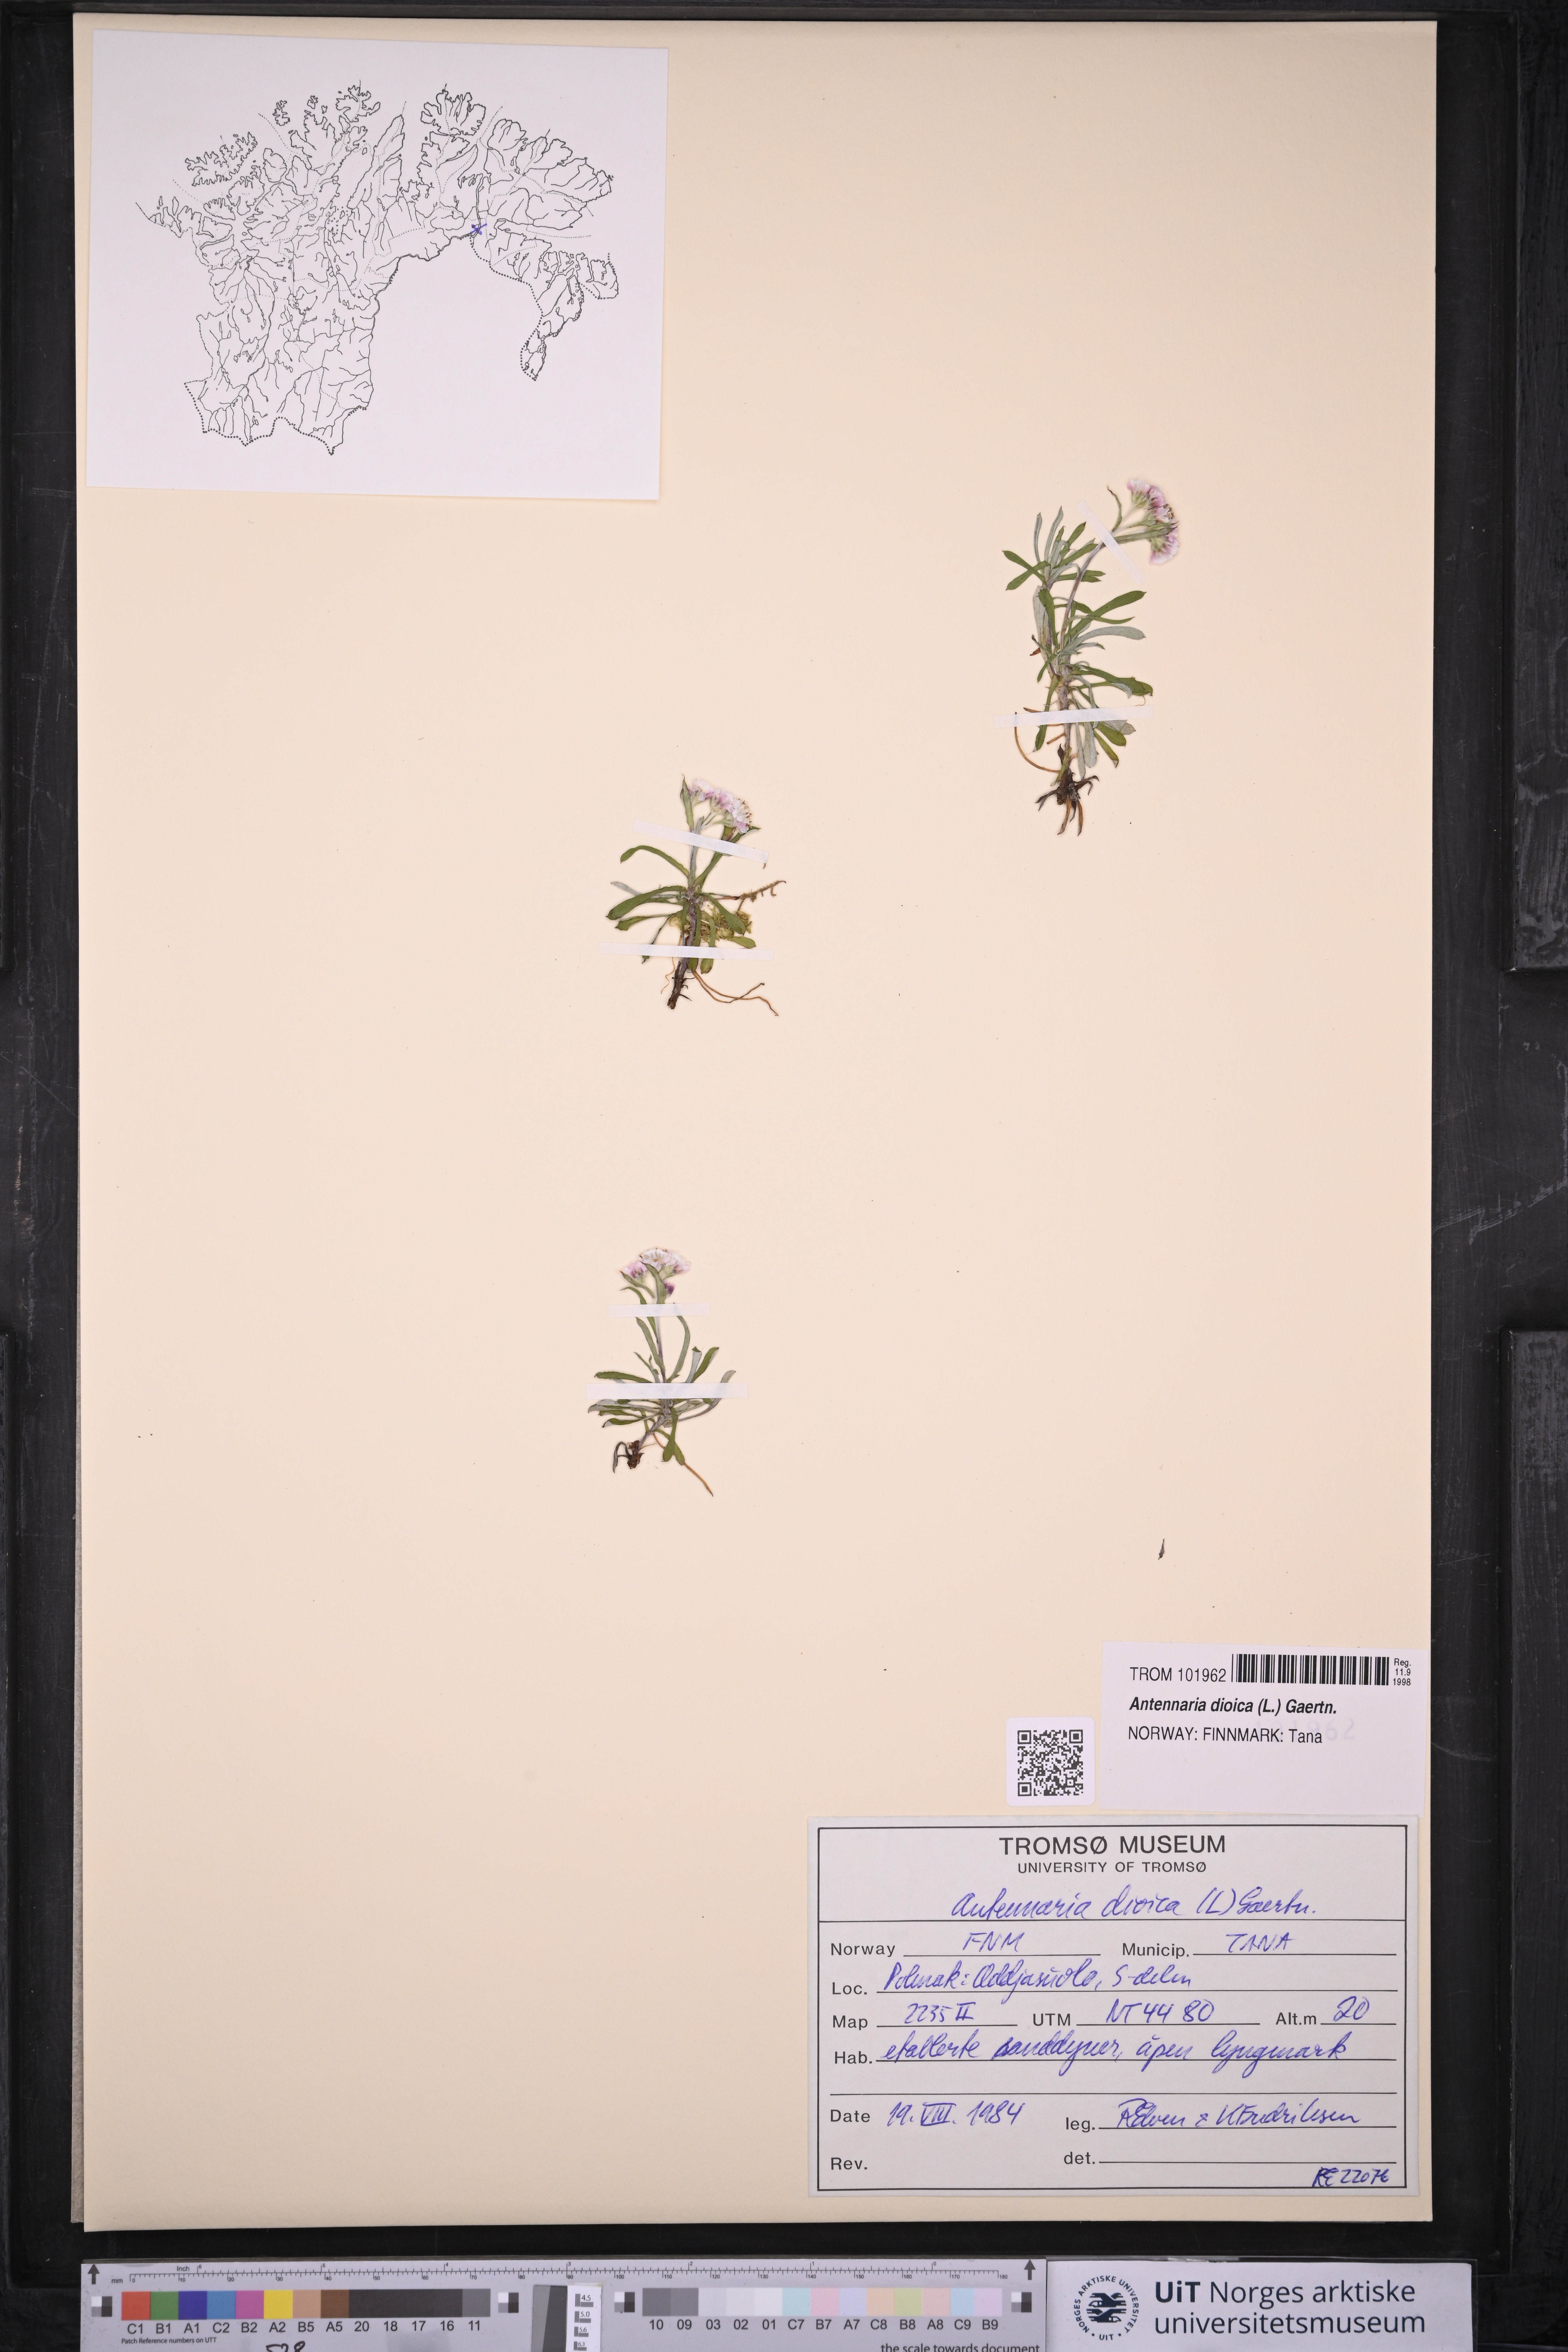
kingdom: Plantae
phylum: Tracheophyta
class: Magnoliopsida
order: Asterales
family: Asteraceae
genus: Antennaria
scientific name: Antennaria dioica
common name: Mountain everlasting
